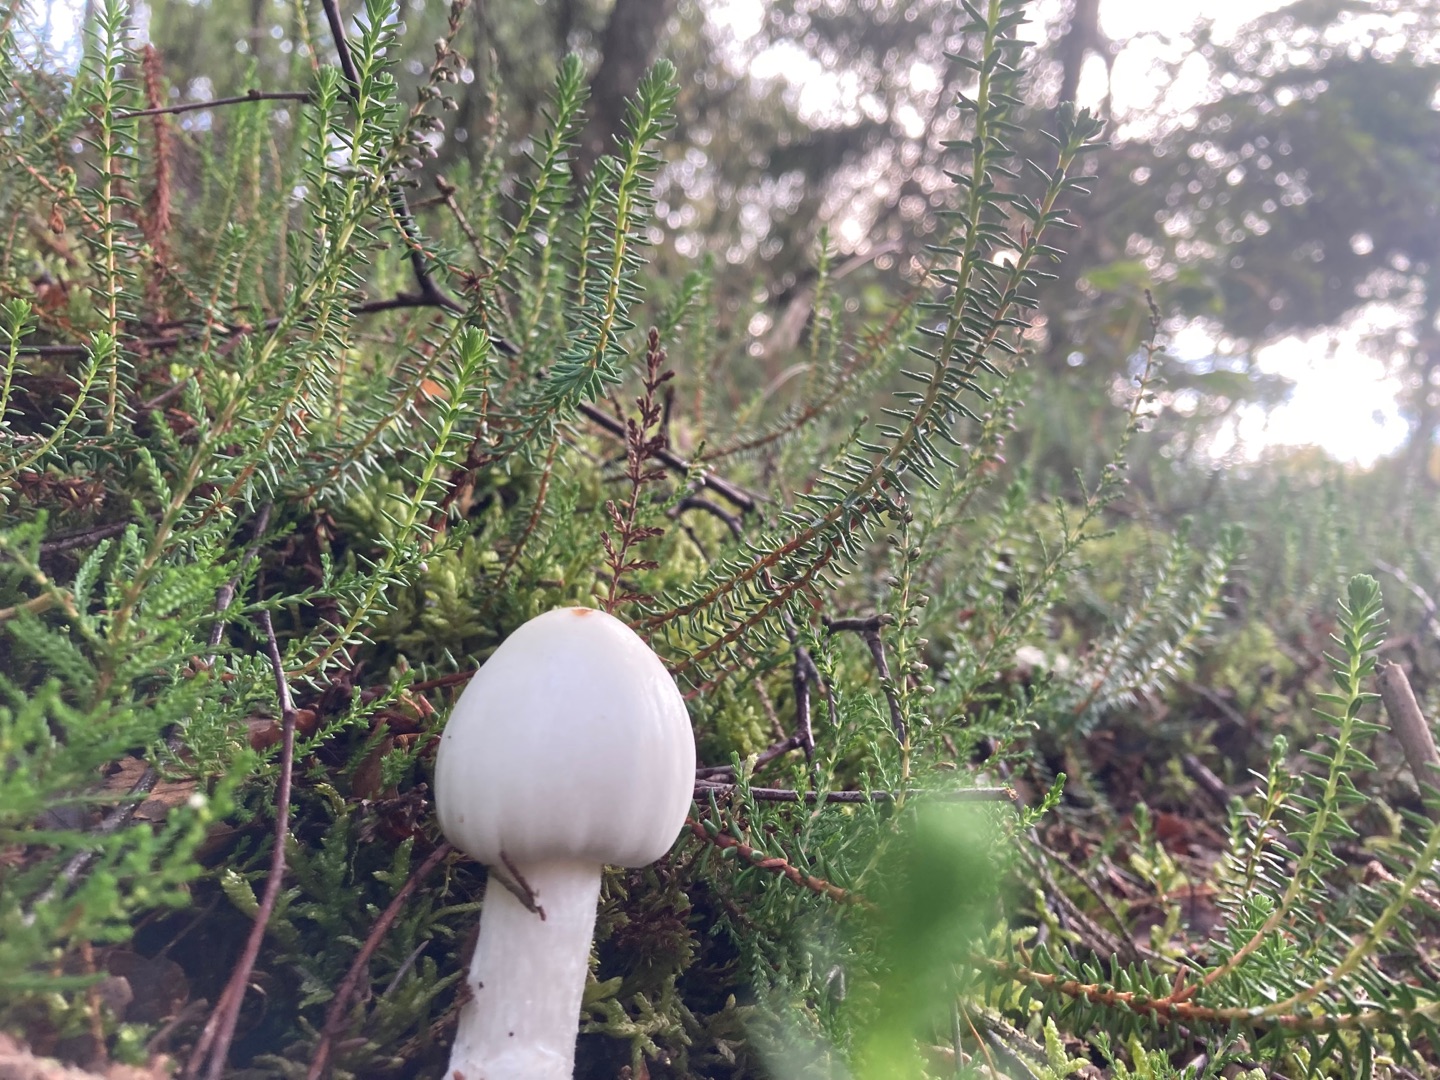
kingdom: Fungi
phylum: Basidiomycota
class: Agaricomycetes
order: Agaricales
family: Amanitaceae
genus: Amanita
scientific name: Amanita virosa
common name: Snehvid fluesvamp
